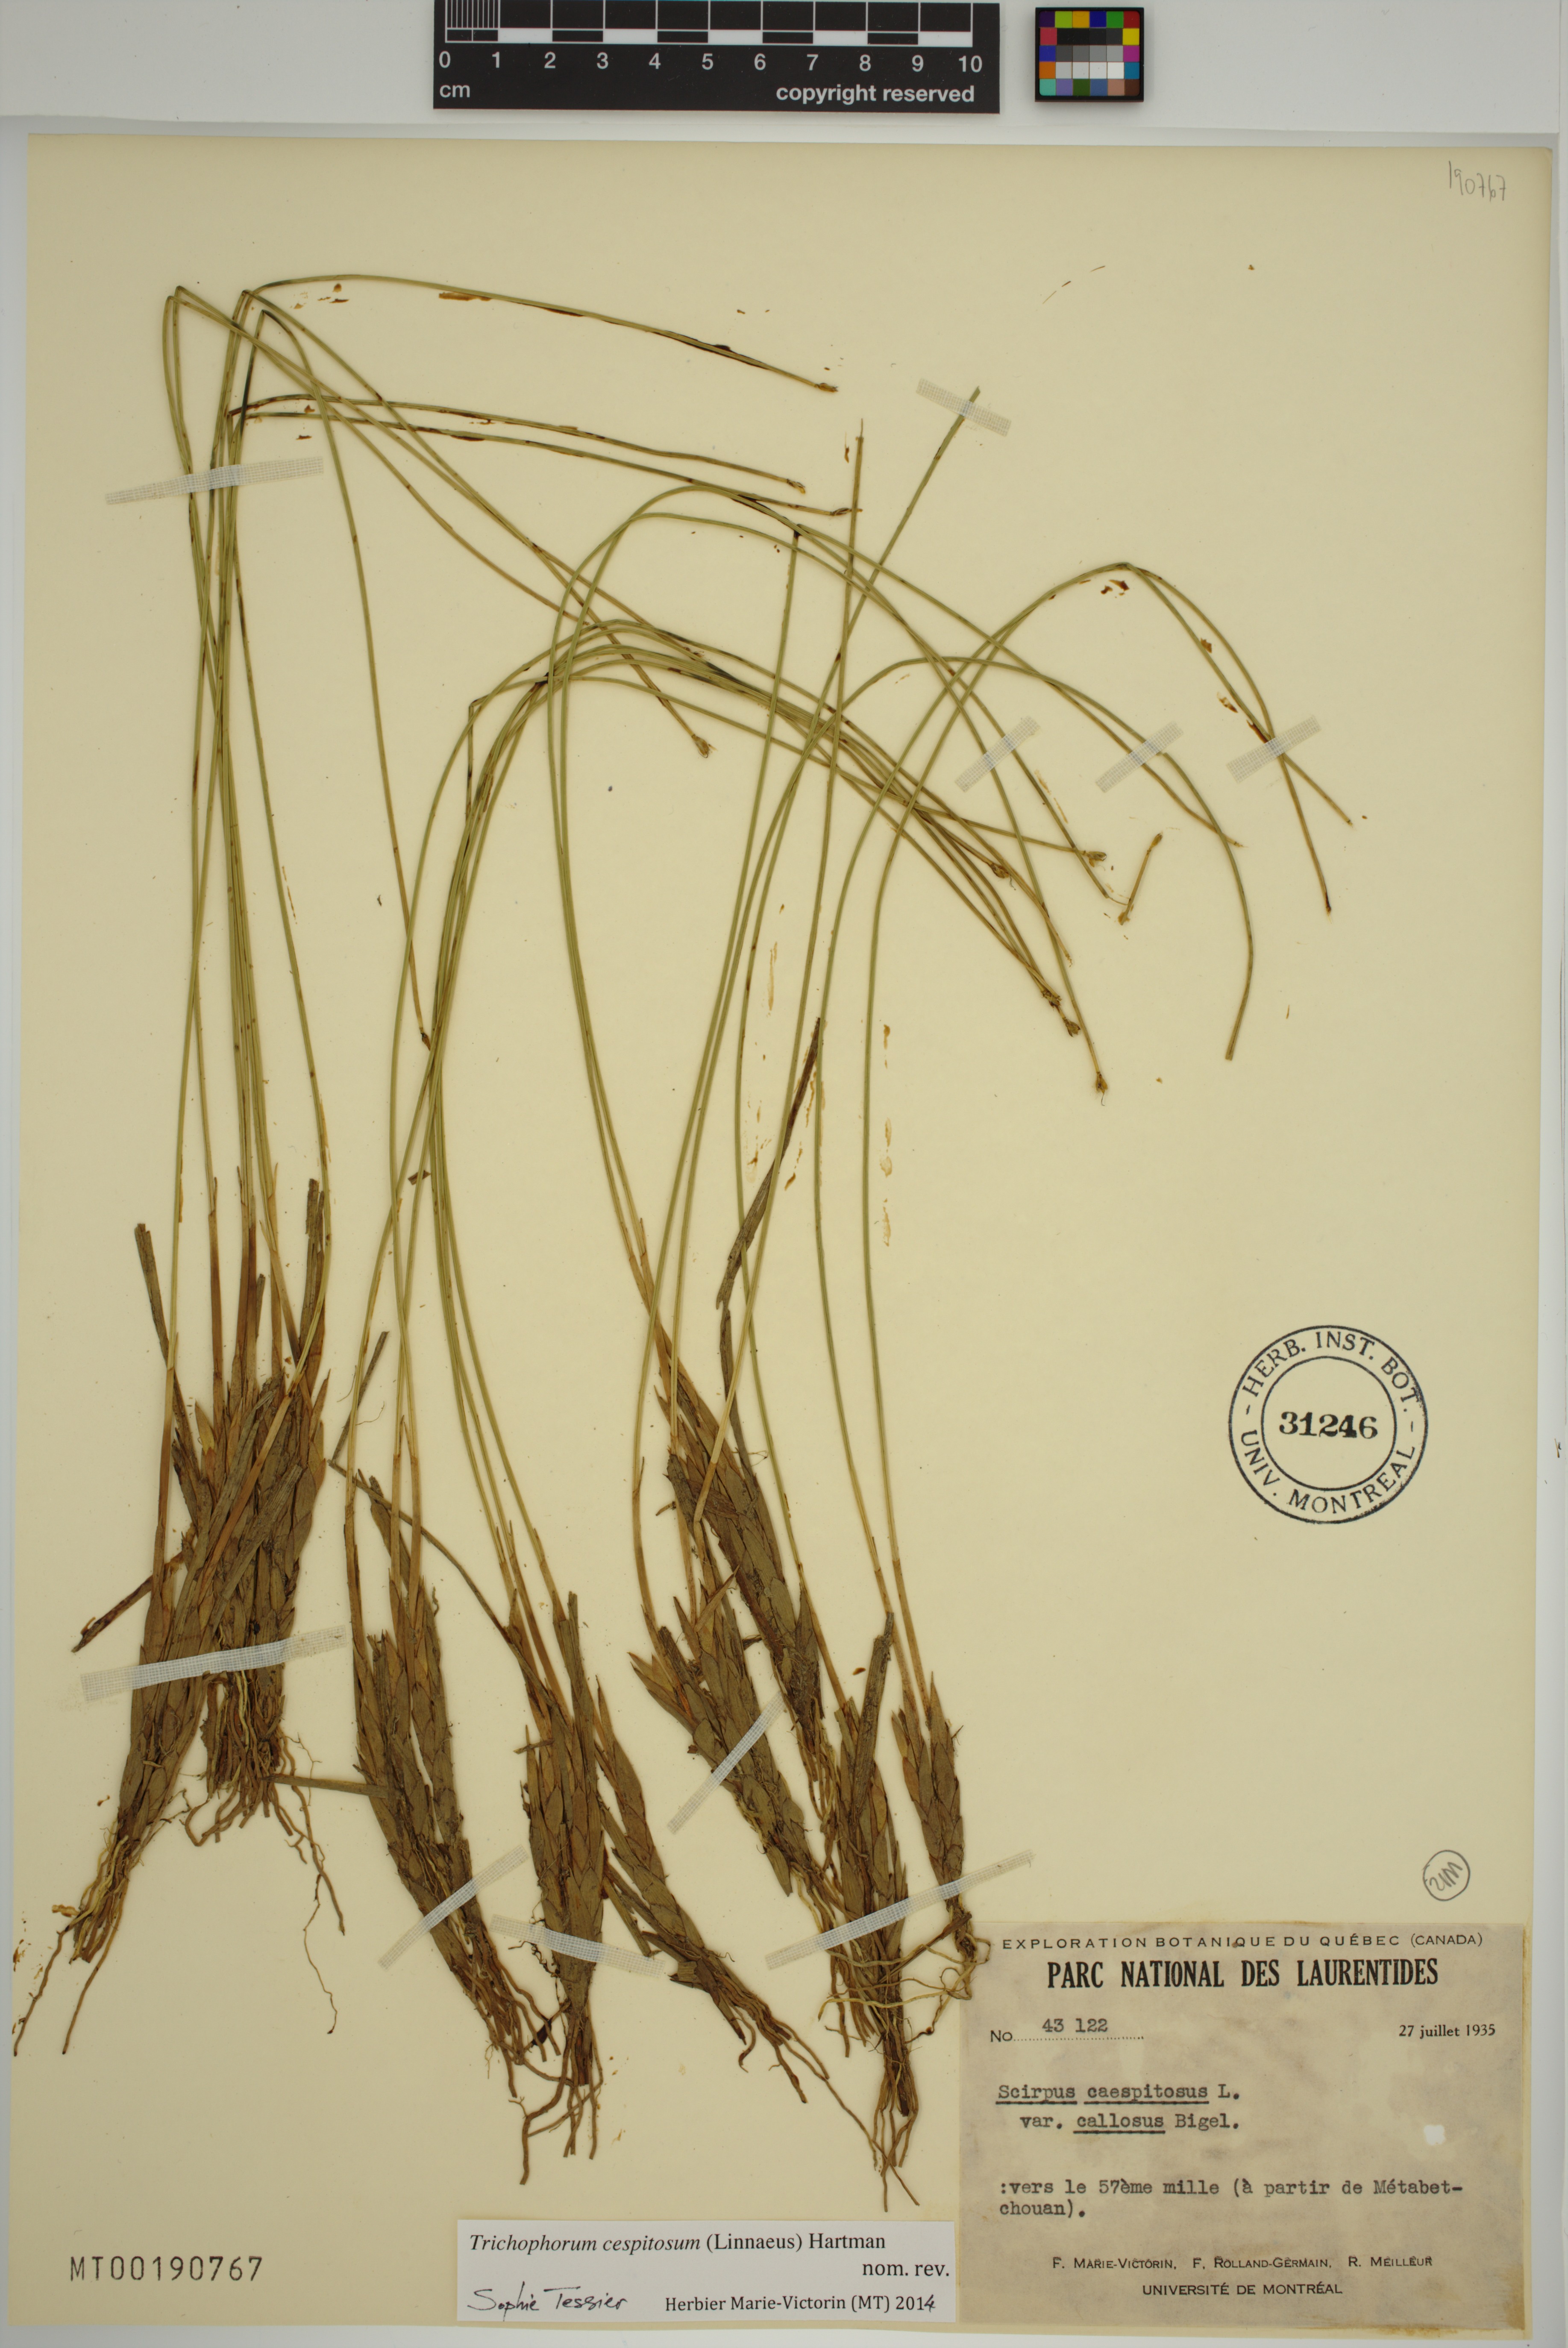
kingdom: Plantae
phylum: Tracheophyta
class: Liliopsida
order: Poales
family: Cyperaceae
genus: Trichophorum
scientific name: Trichophorum cespitosum
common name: Cespitose bulrush
